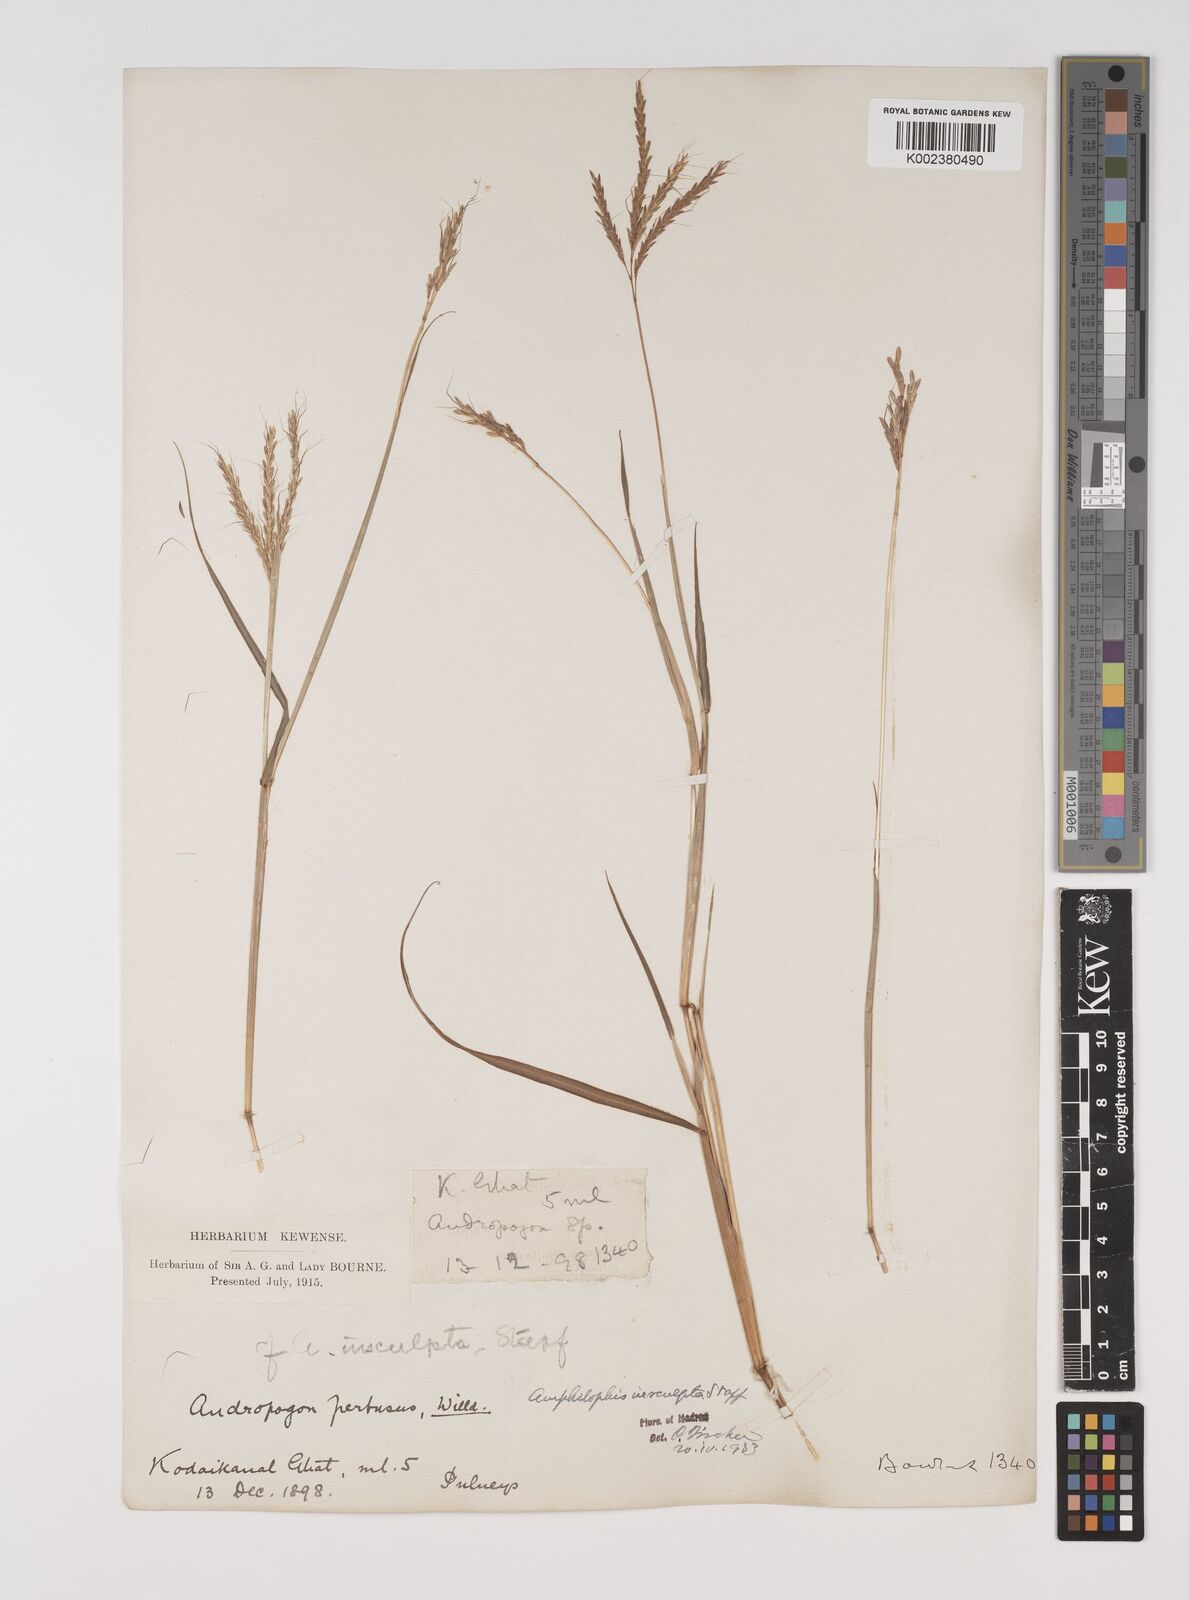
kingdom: Plantae
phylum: Tracheophyta
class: Liliopsida
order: Poales
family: Poaceae
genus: Bothriochloa
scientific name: Bothriochloa insculpta
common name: Creeping-bluegrass
